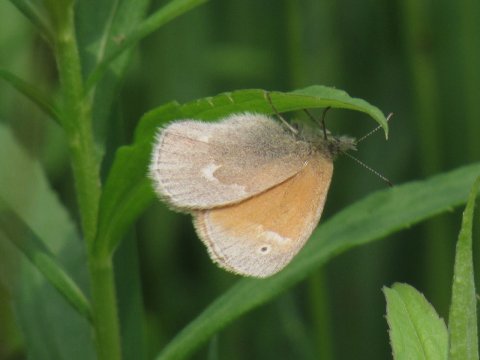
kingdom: Animalia
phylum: Arthropoda
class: Insecta
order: Lepidoptera
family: Nymphalidae
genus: Coenonympha
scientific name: Coenonympha tullia
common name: Large Heath
